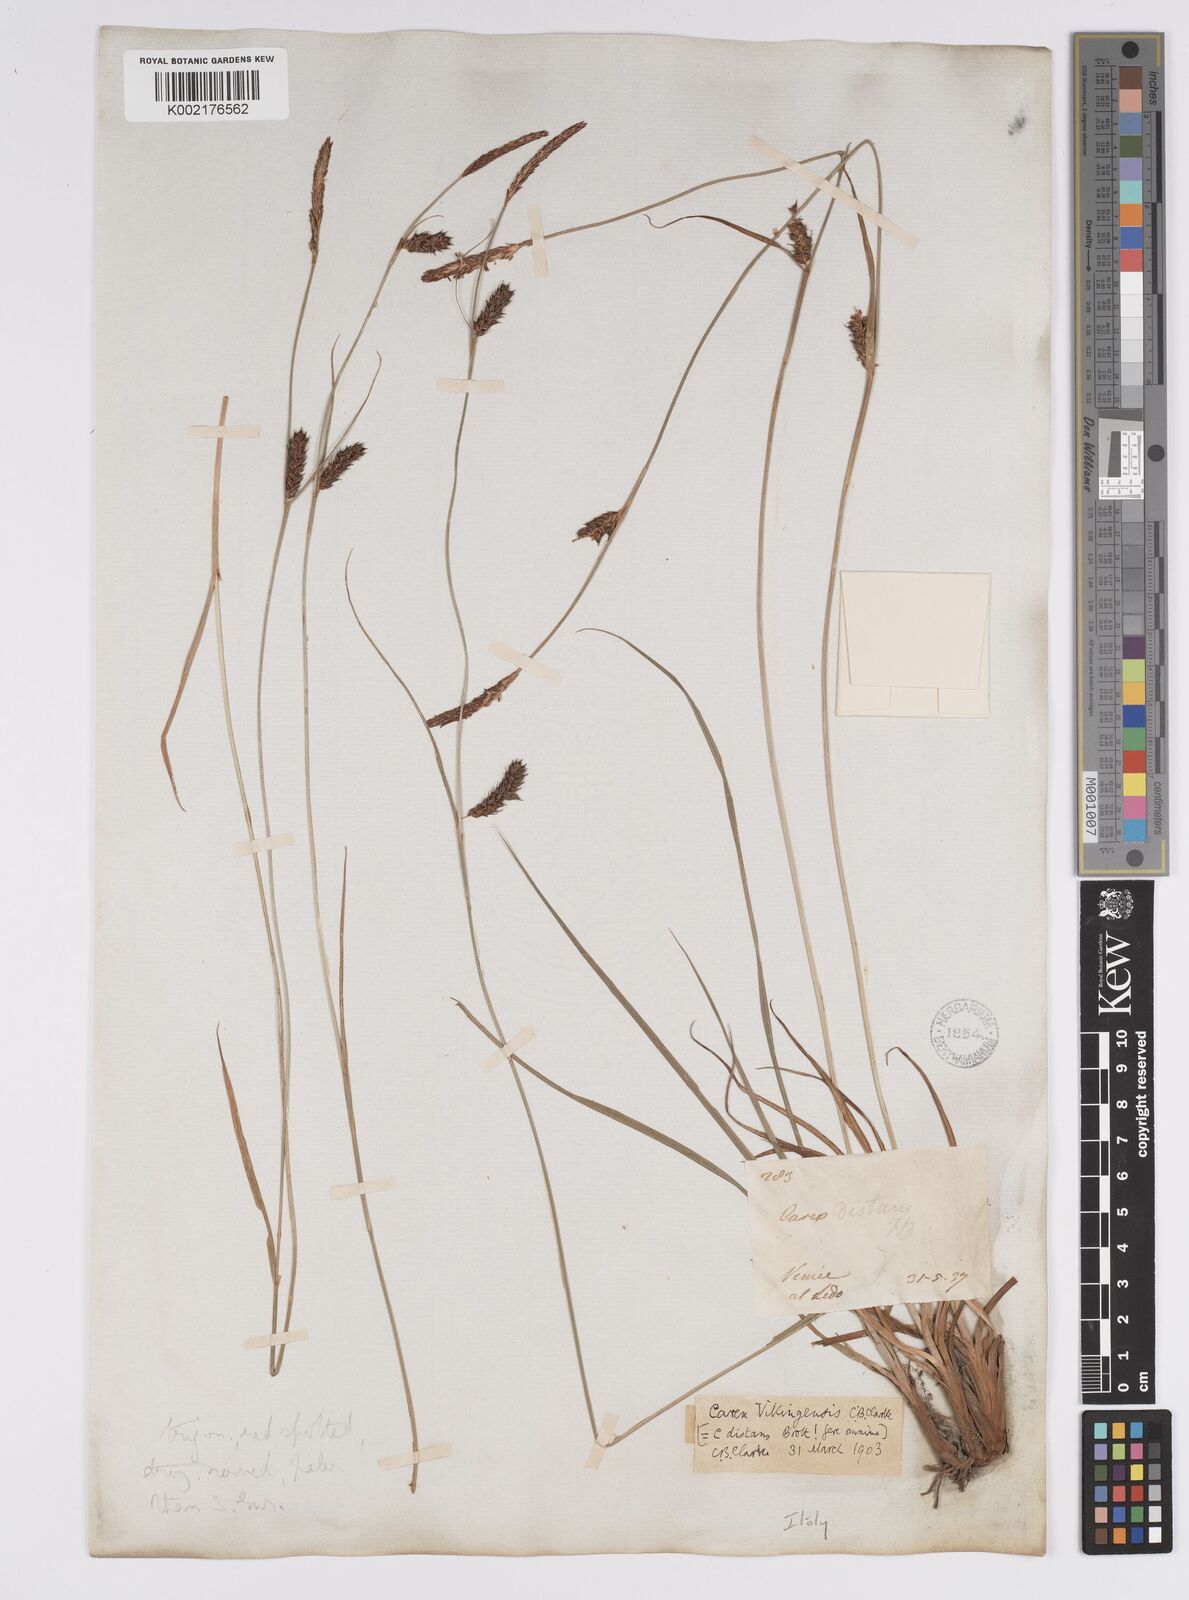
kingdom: Plantae
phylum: Tracheophyta
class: Liliopsida
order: Poales
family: Cyperaceae
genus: Carex
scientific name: Carex distans
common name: Distant sedge
